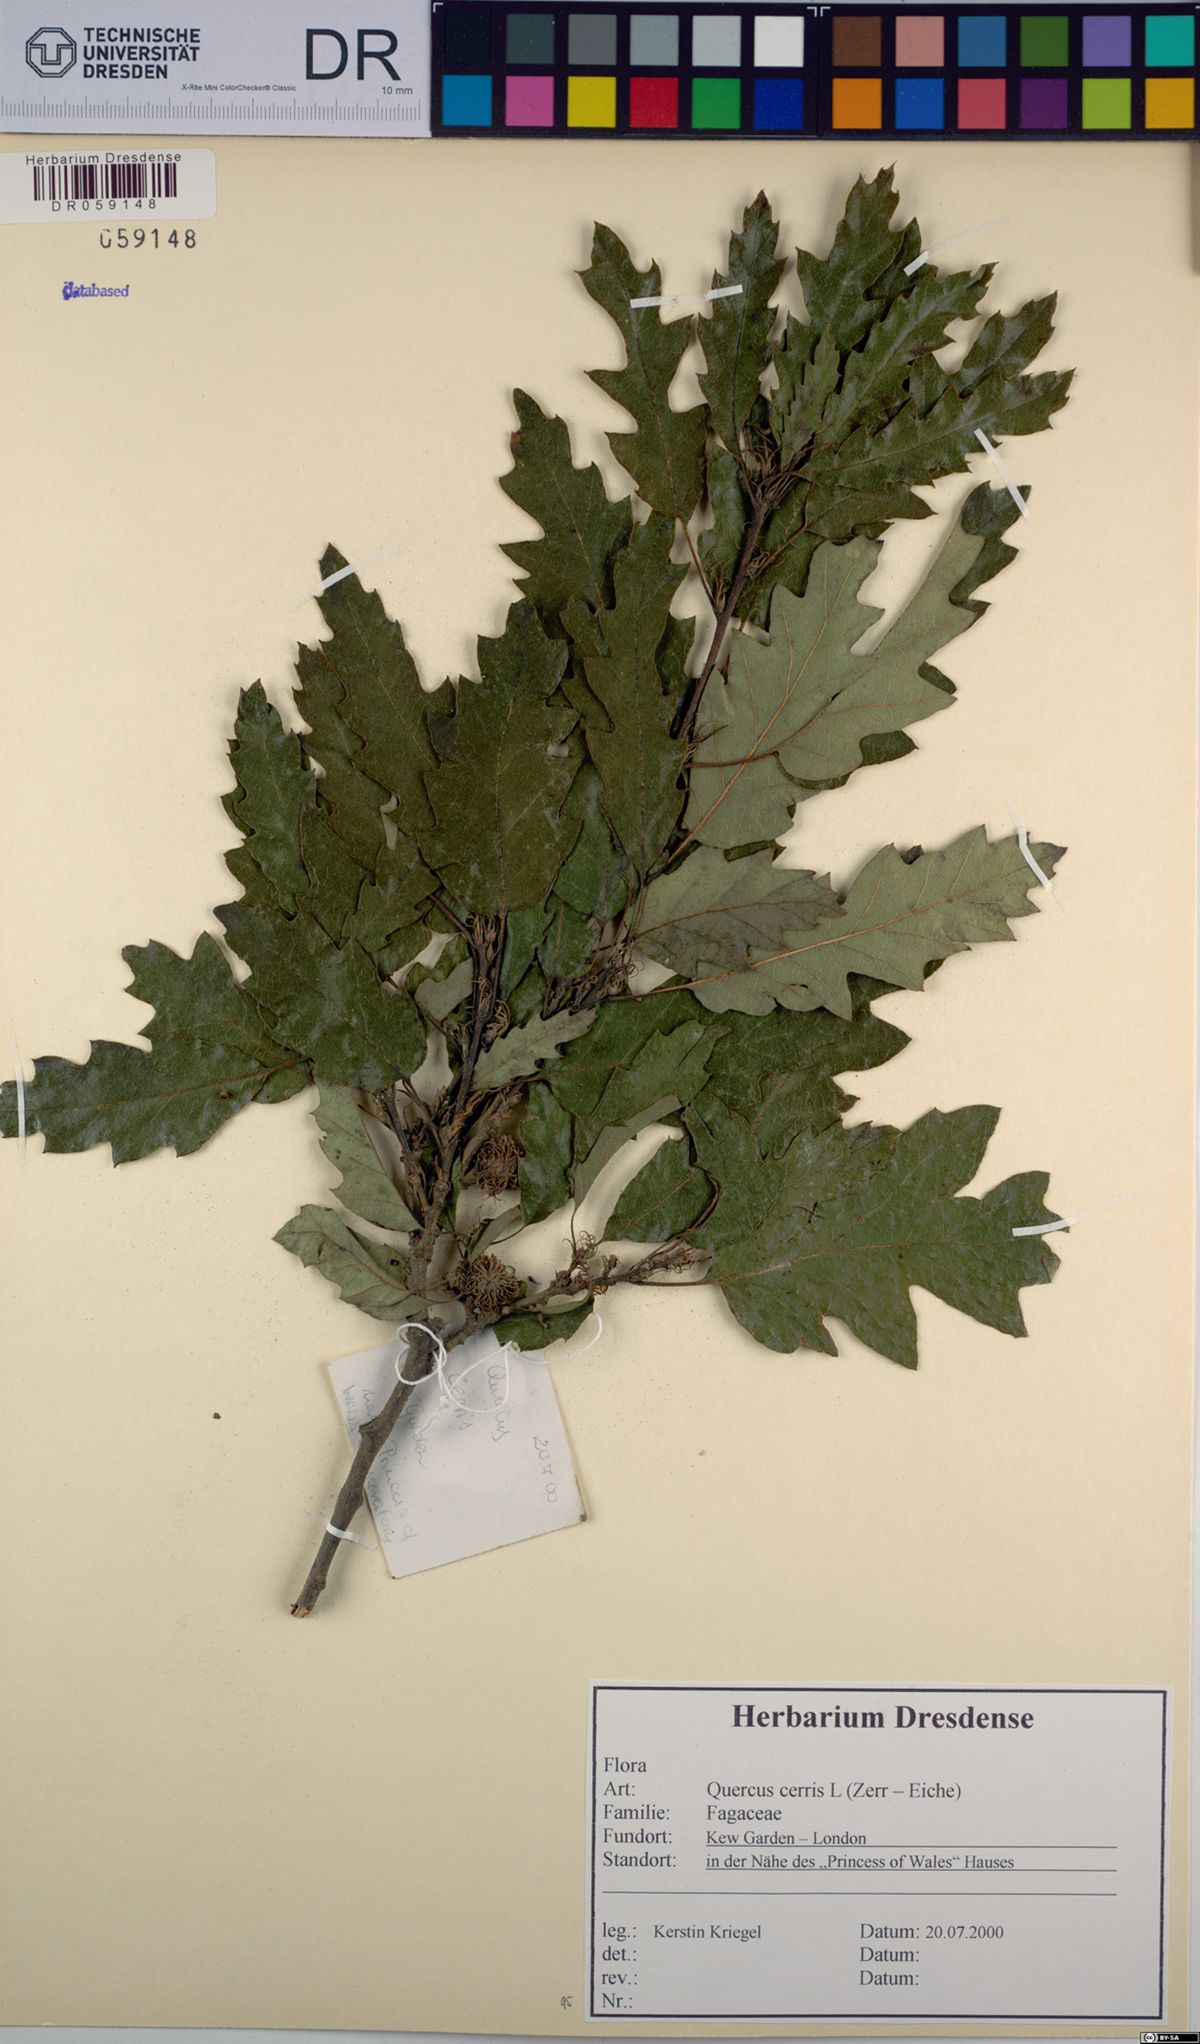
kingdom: Plantae
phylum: Tracheophyta
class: Magnoliopsida
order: Fagales
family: Fagaceae
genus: Quercus
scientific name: Quercus cerris
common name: Turkey oak
